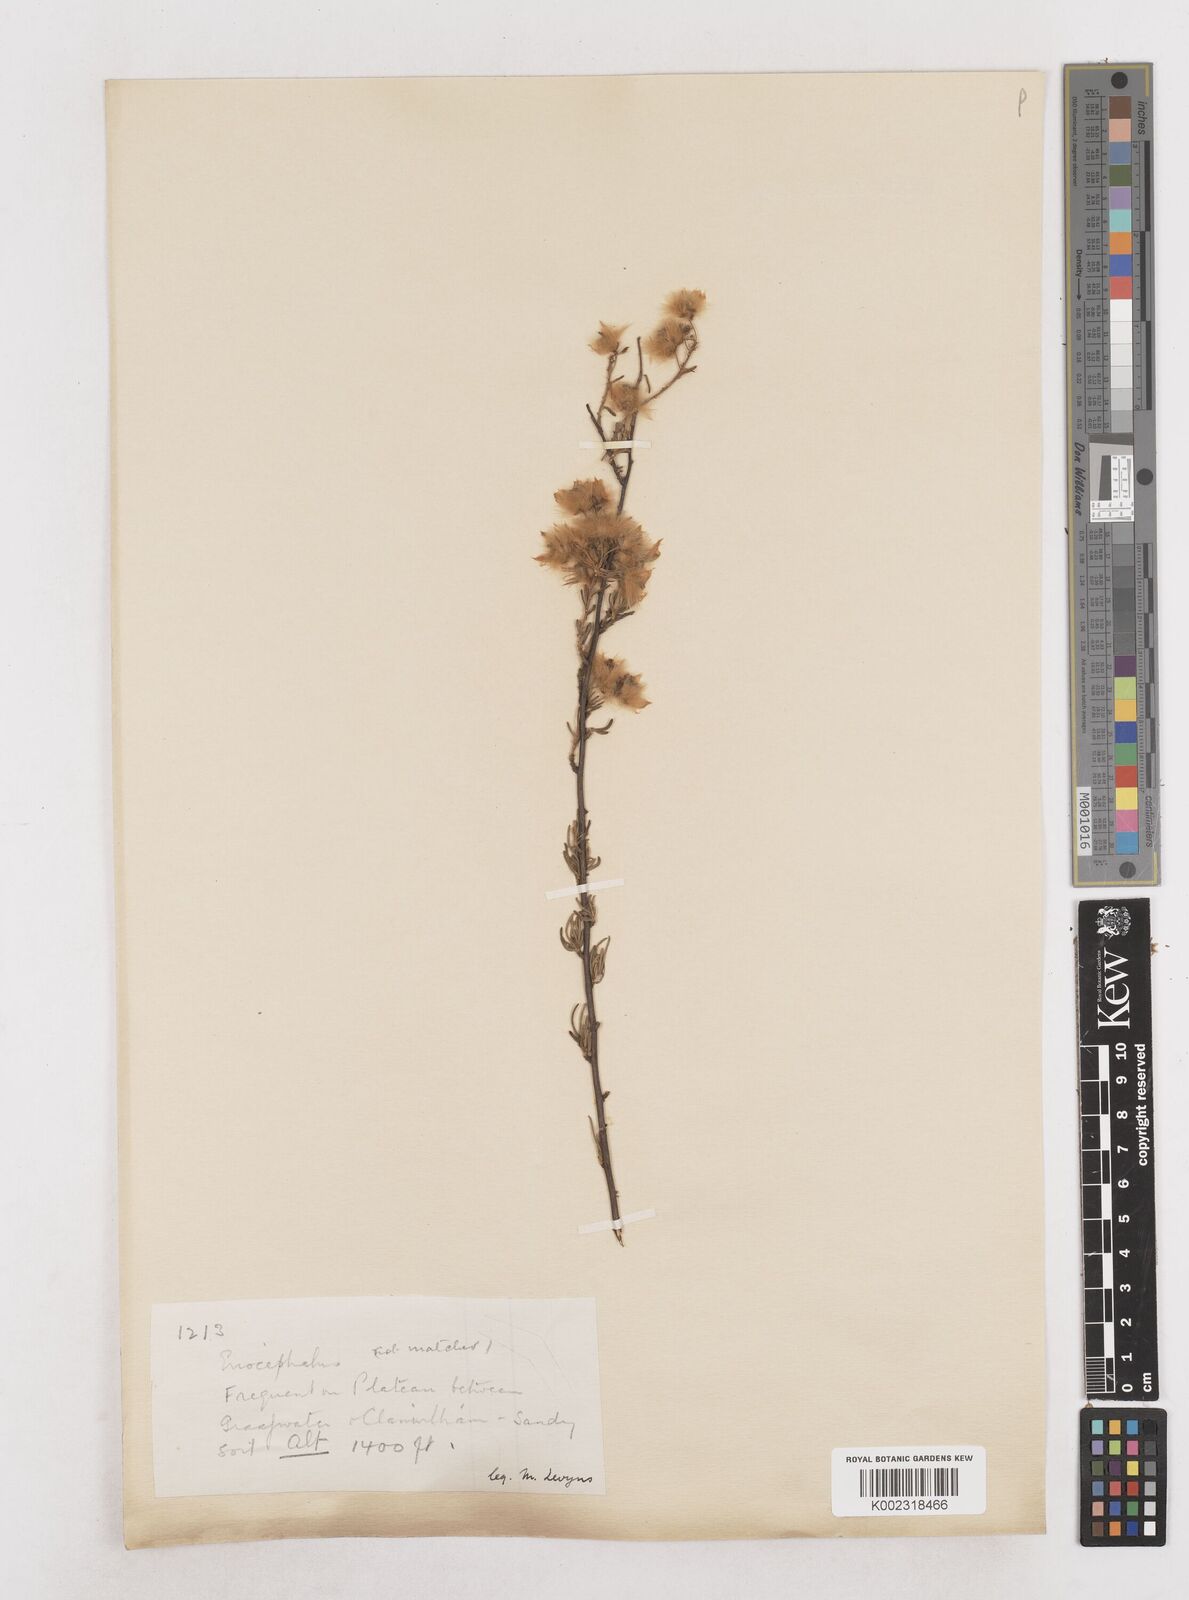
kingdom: Plantae
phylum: Tracheophyta
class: Magnoliopsida
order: Asterales
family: Asteraceae
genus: Eriocephalus
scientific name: Eriocephalus
